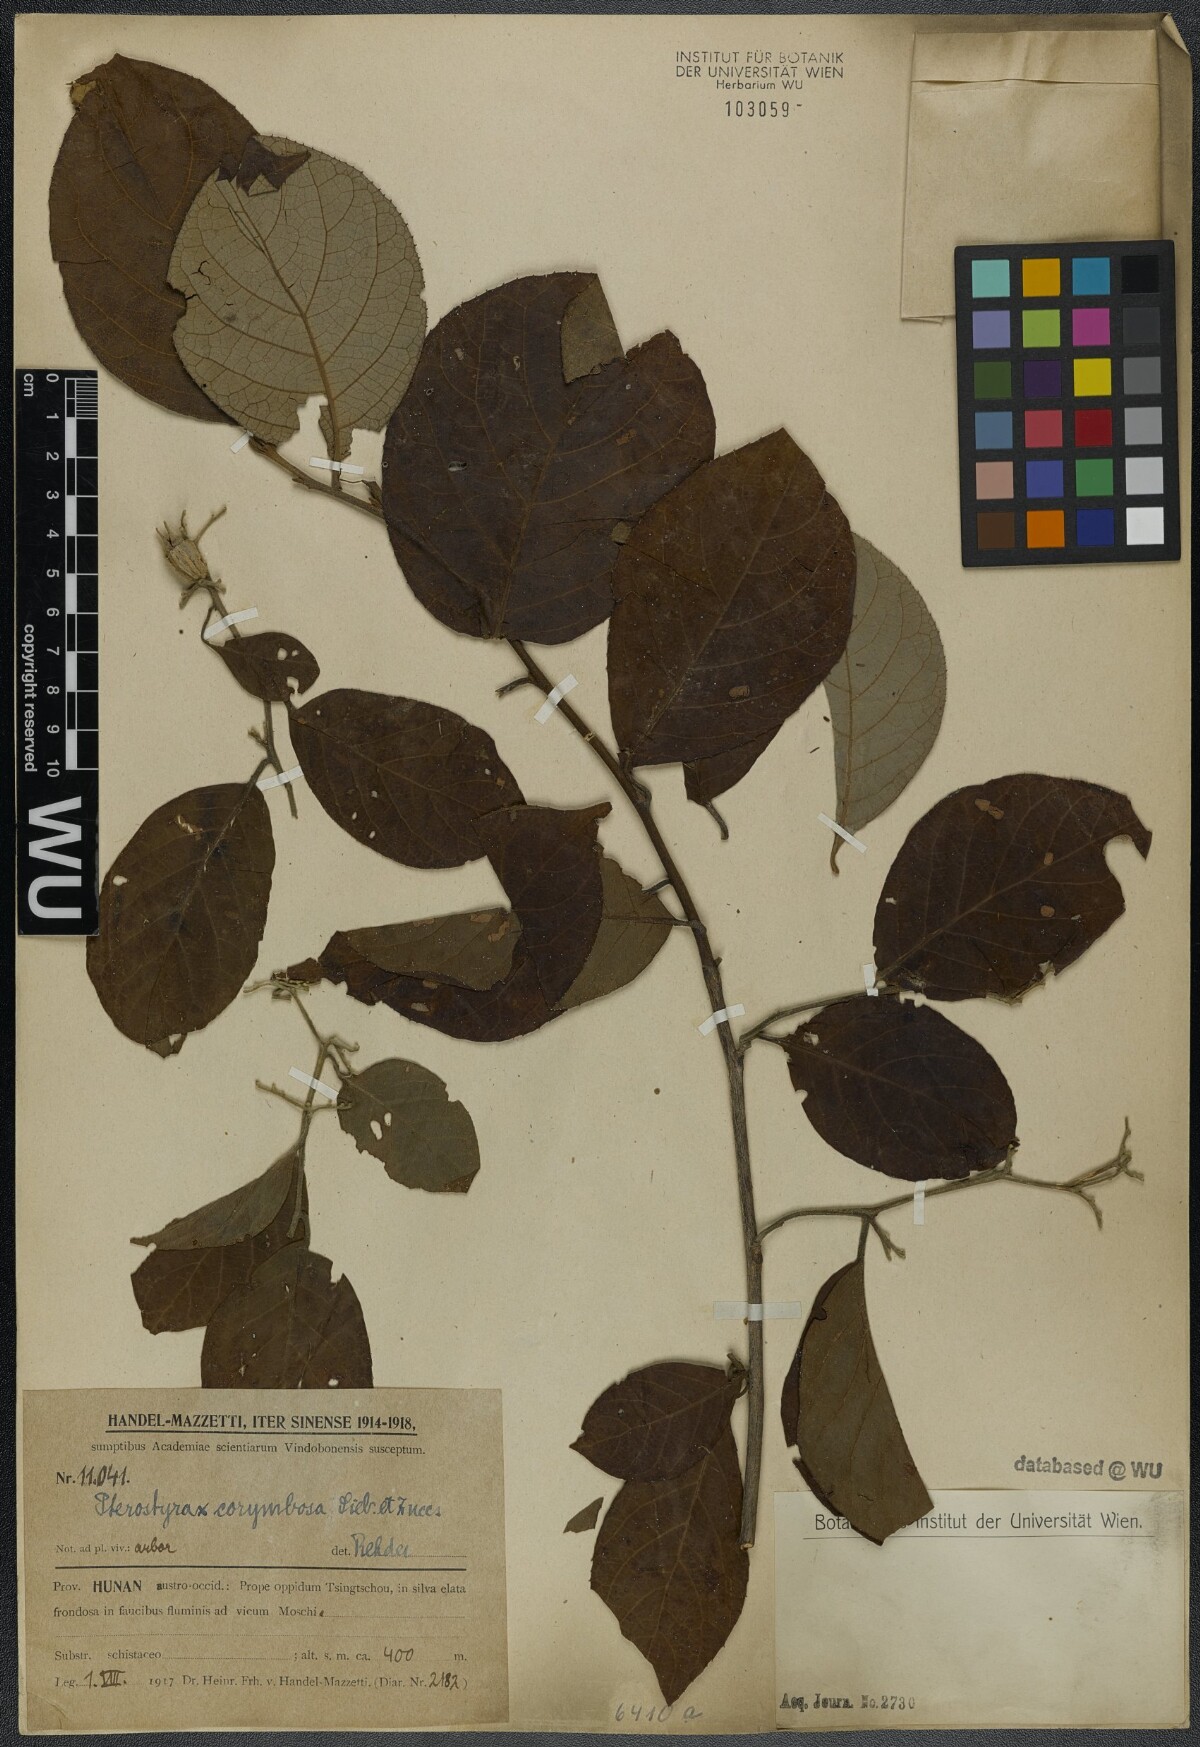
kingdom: Plantae
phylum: Tracheophyta
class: Magnoliopsida
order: Ericales
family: Styracaceae
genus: Pterostyrax
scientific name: Pterostyrax corymbosus
